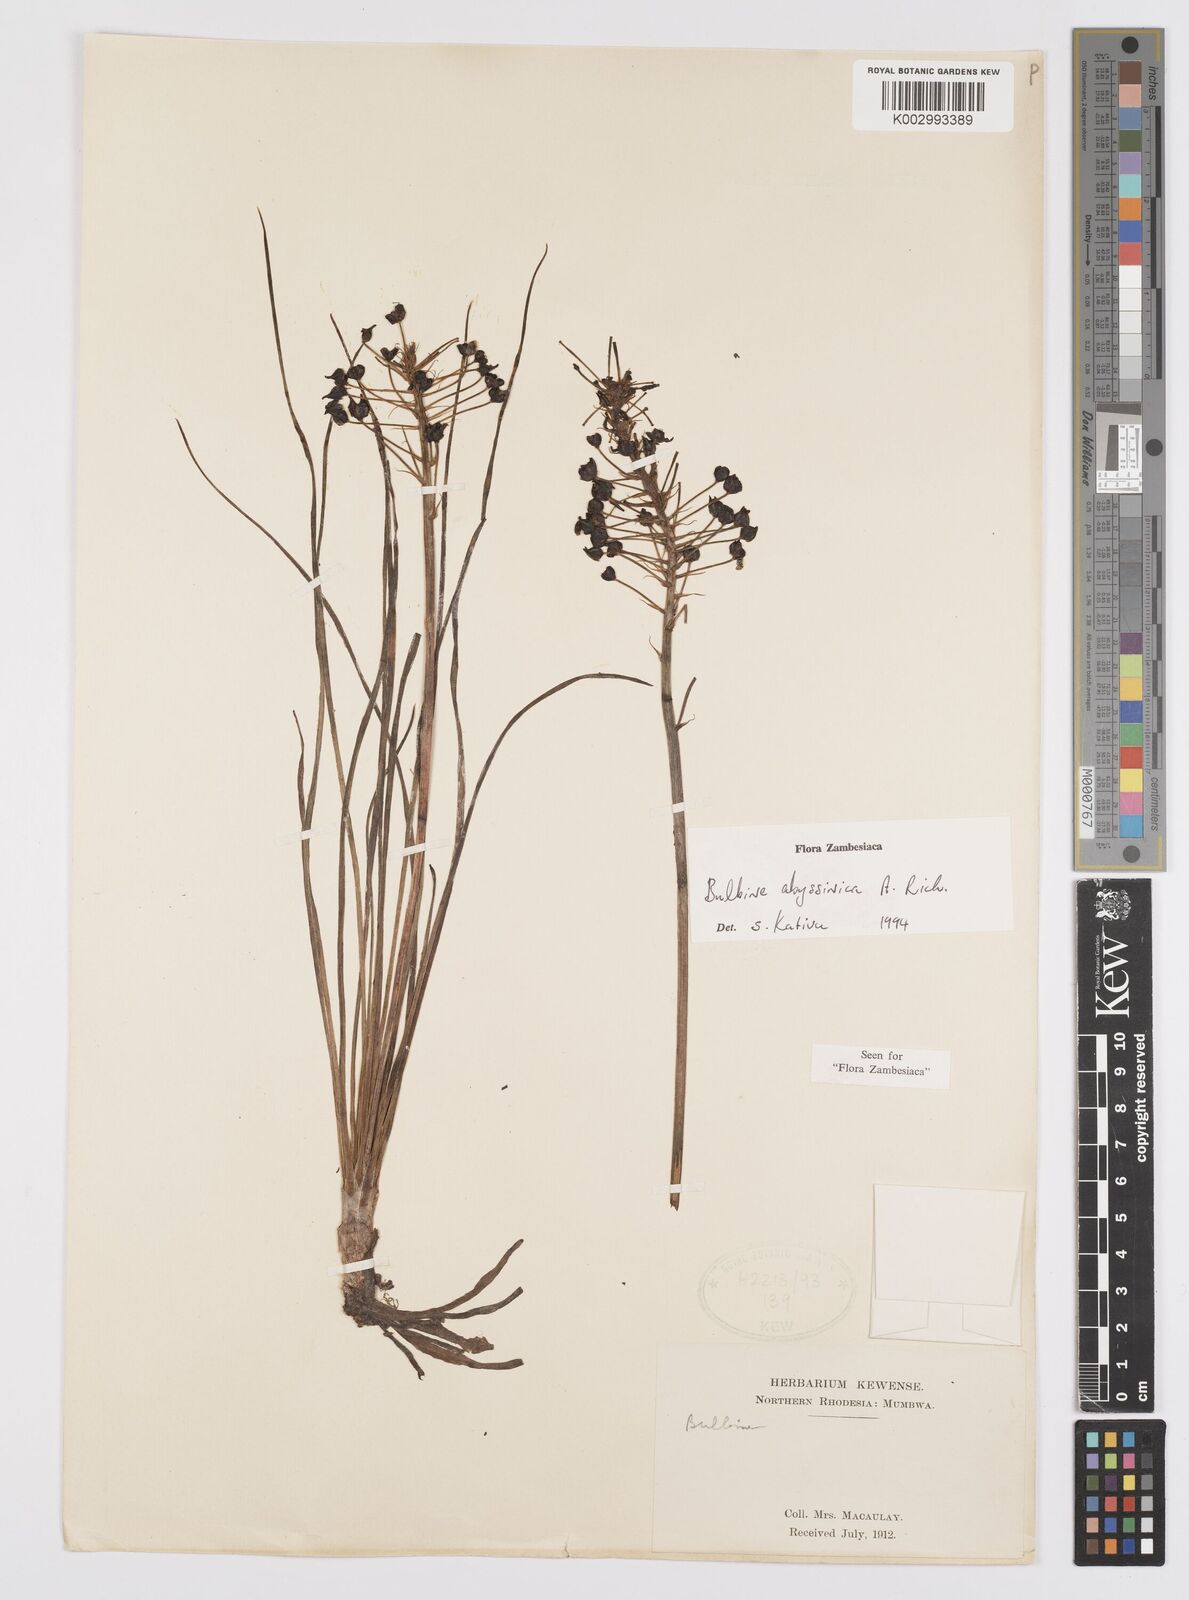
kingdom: Plantae
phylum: Tracheophyta
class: Liliopsida
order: Asparagales
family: Asphodelaceae
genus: Bulbine
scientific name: Bulbine abyssinica
